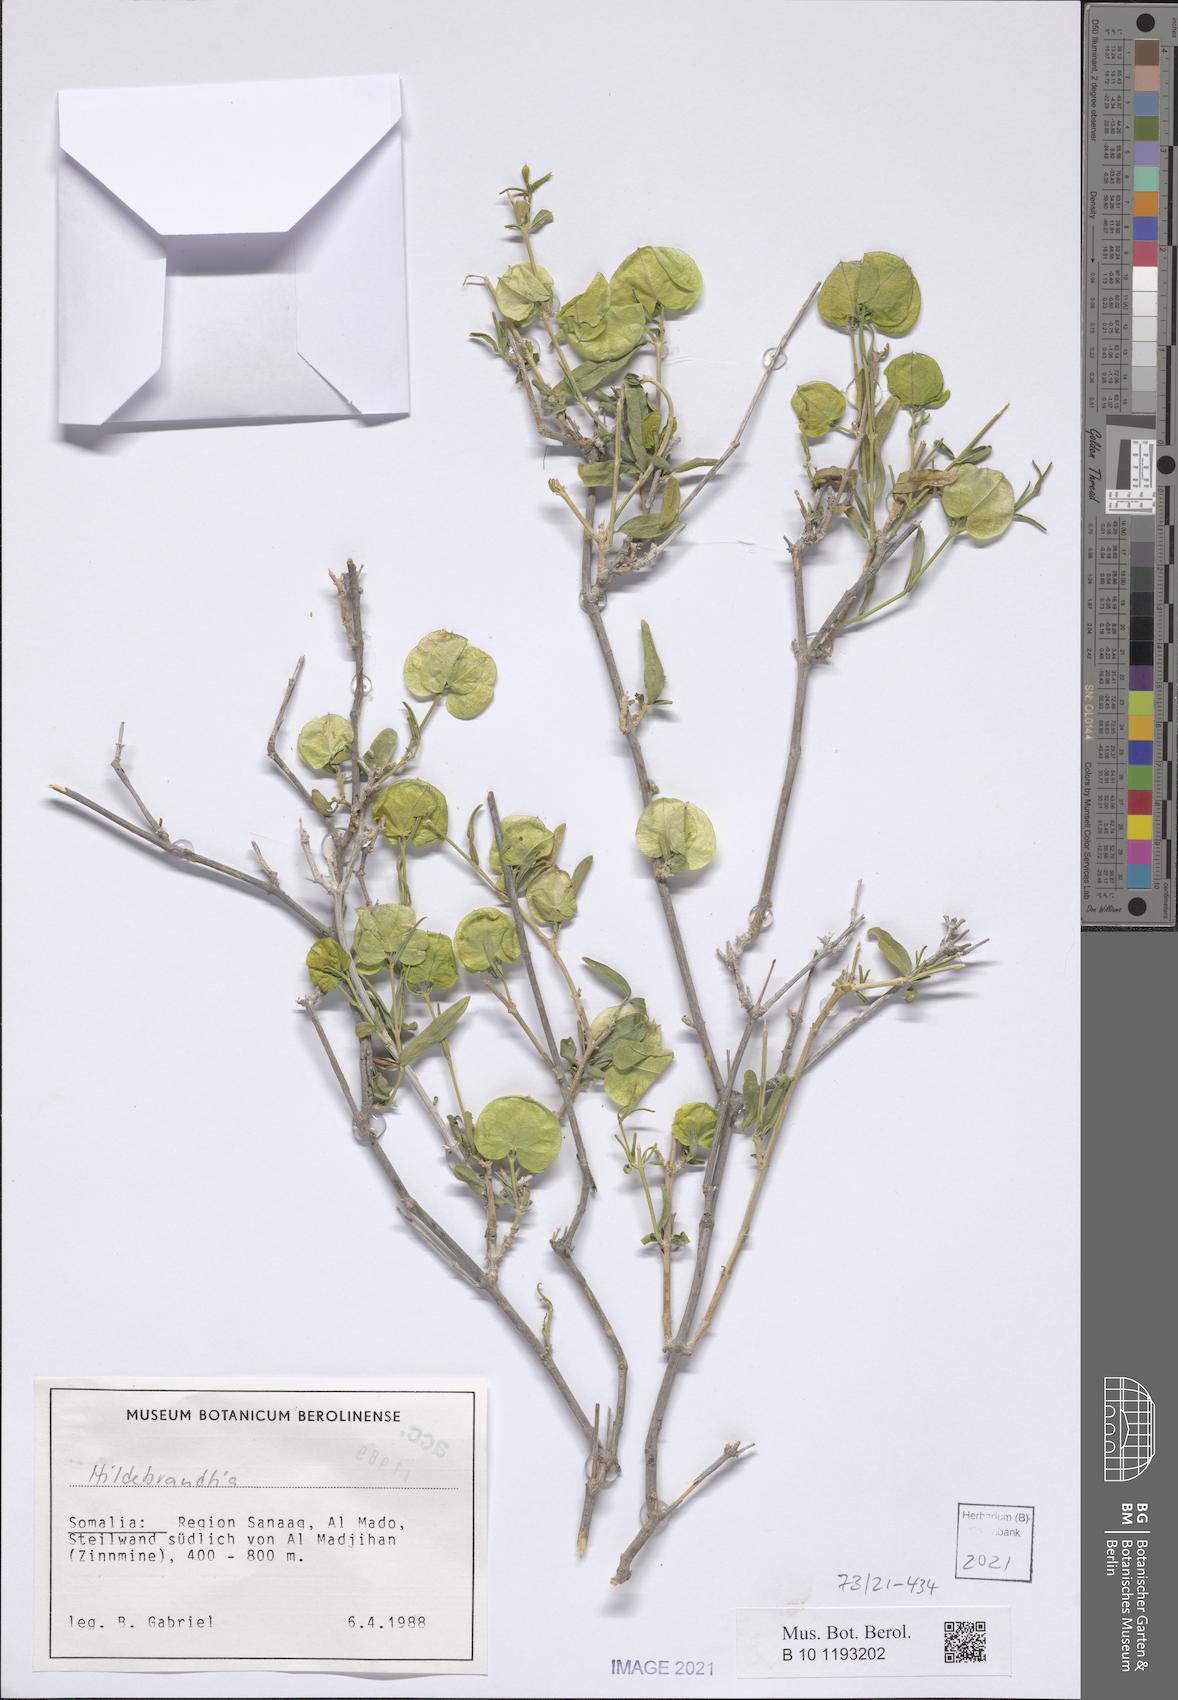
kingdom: Plantae
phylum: Tracheophyta
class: Magnoliopsida
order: Lamiales
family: Acanthaceae
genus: Megalochlamys
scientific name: Megalochlamys linifolia
